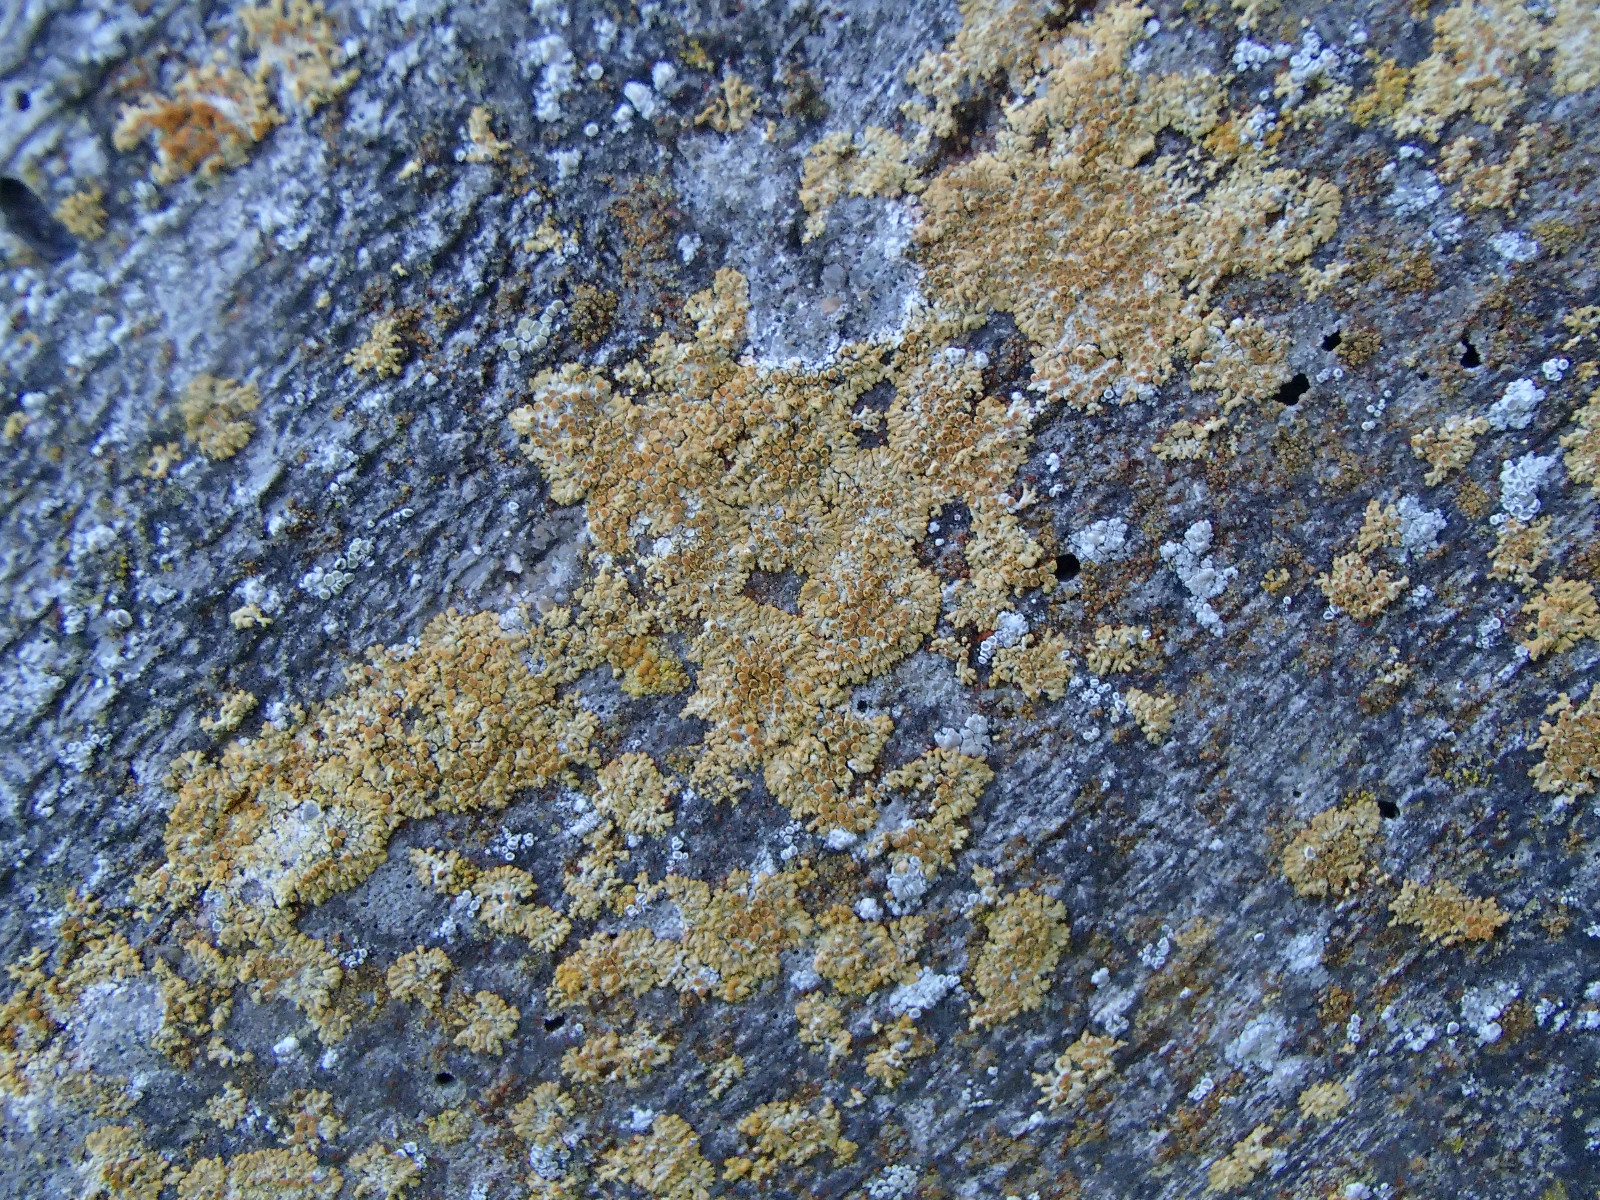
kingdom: Fungi
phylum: Ascomycota
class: Lecanoromycetes
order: Teloschistales
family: Teloschistaceae
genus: Calogaya
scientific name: Calogaya arnoldii
